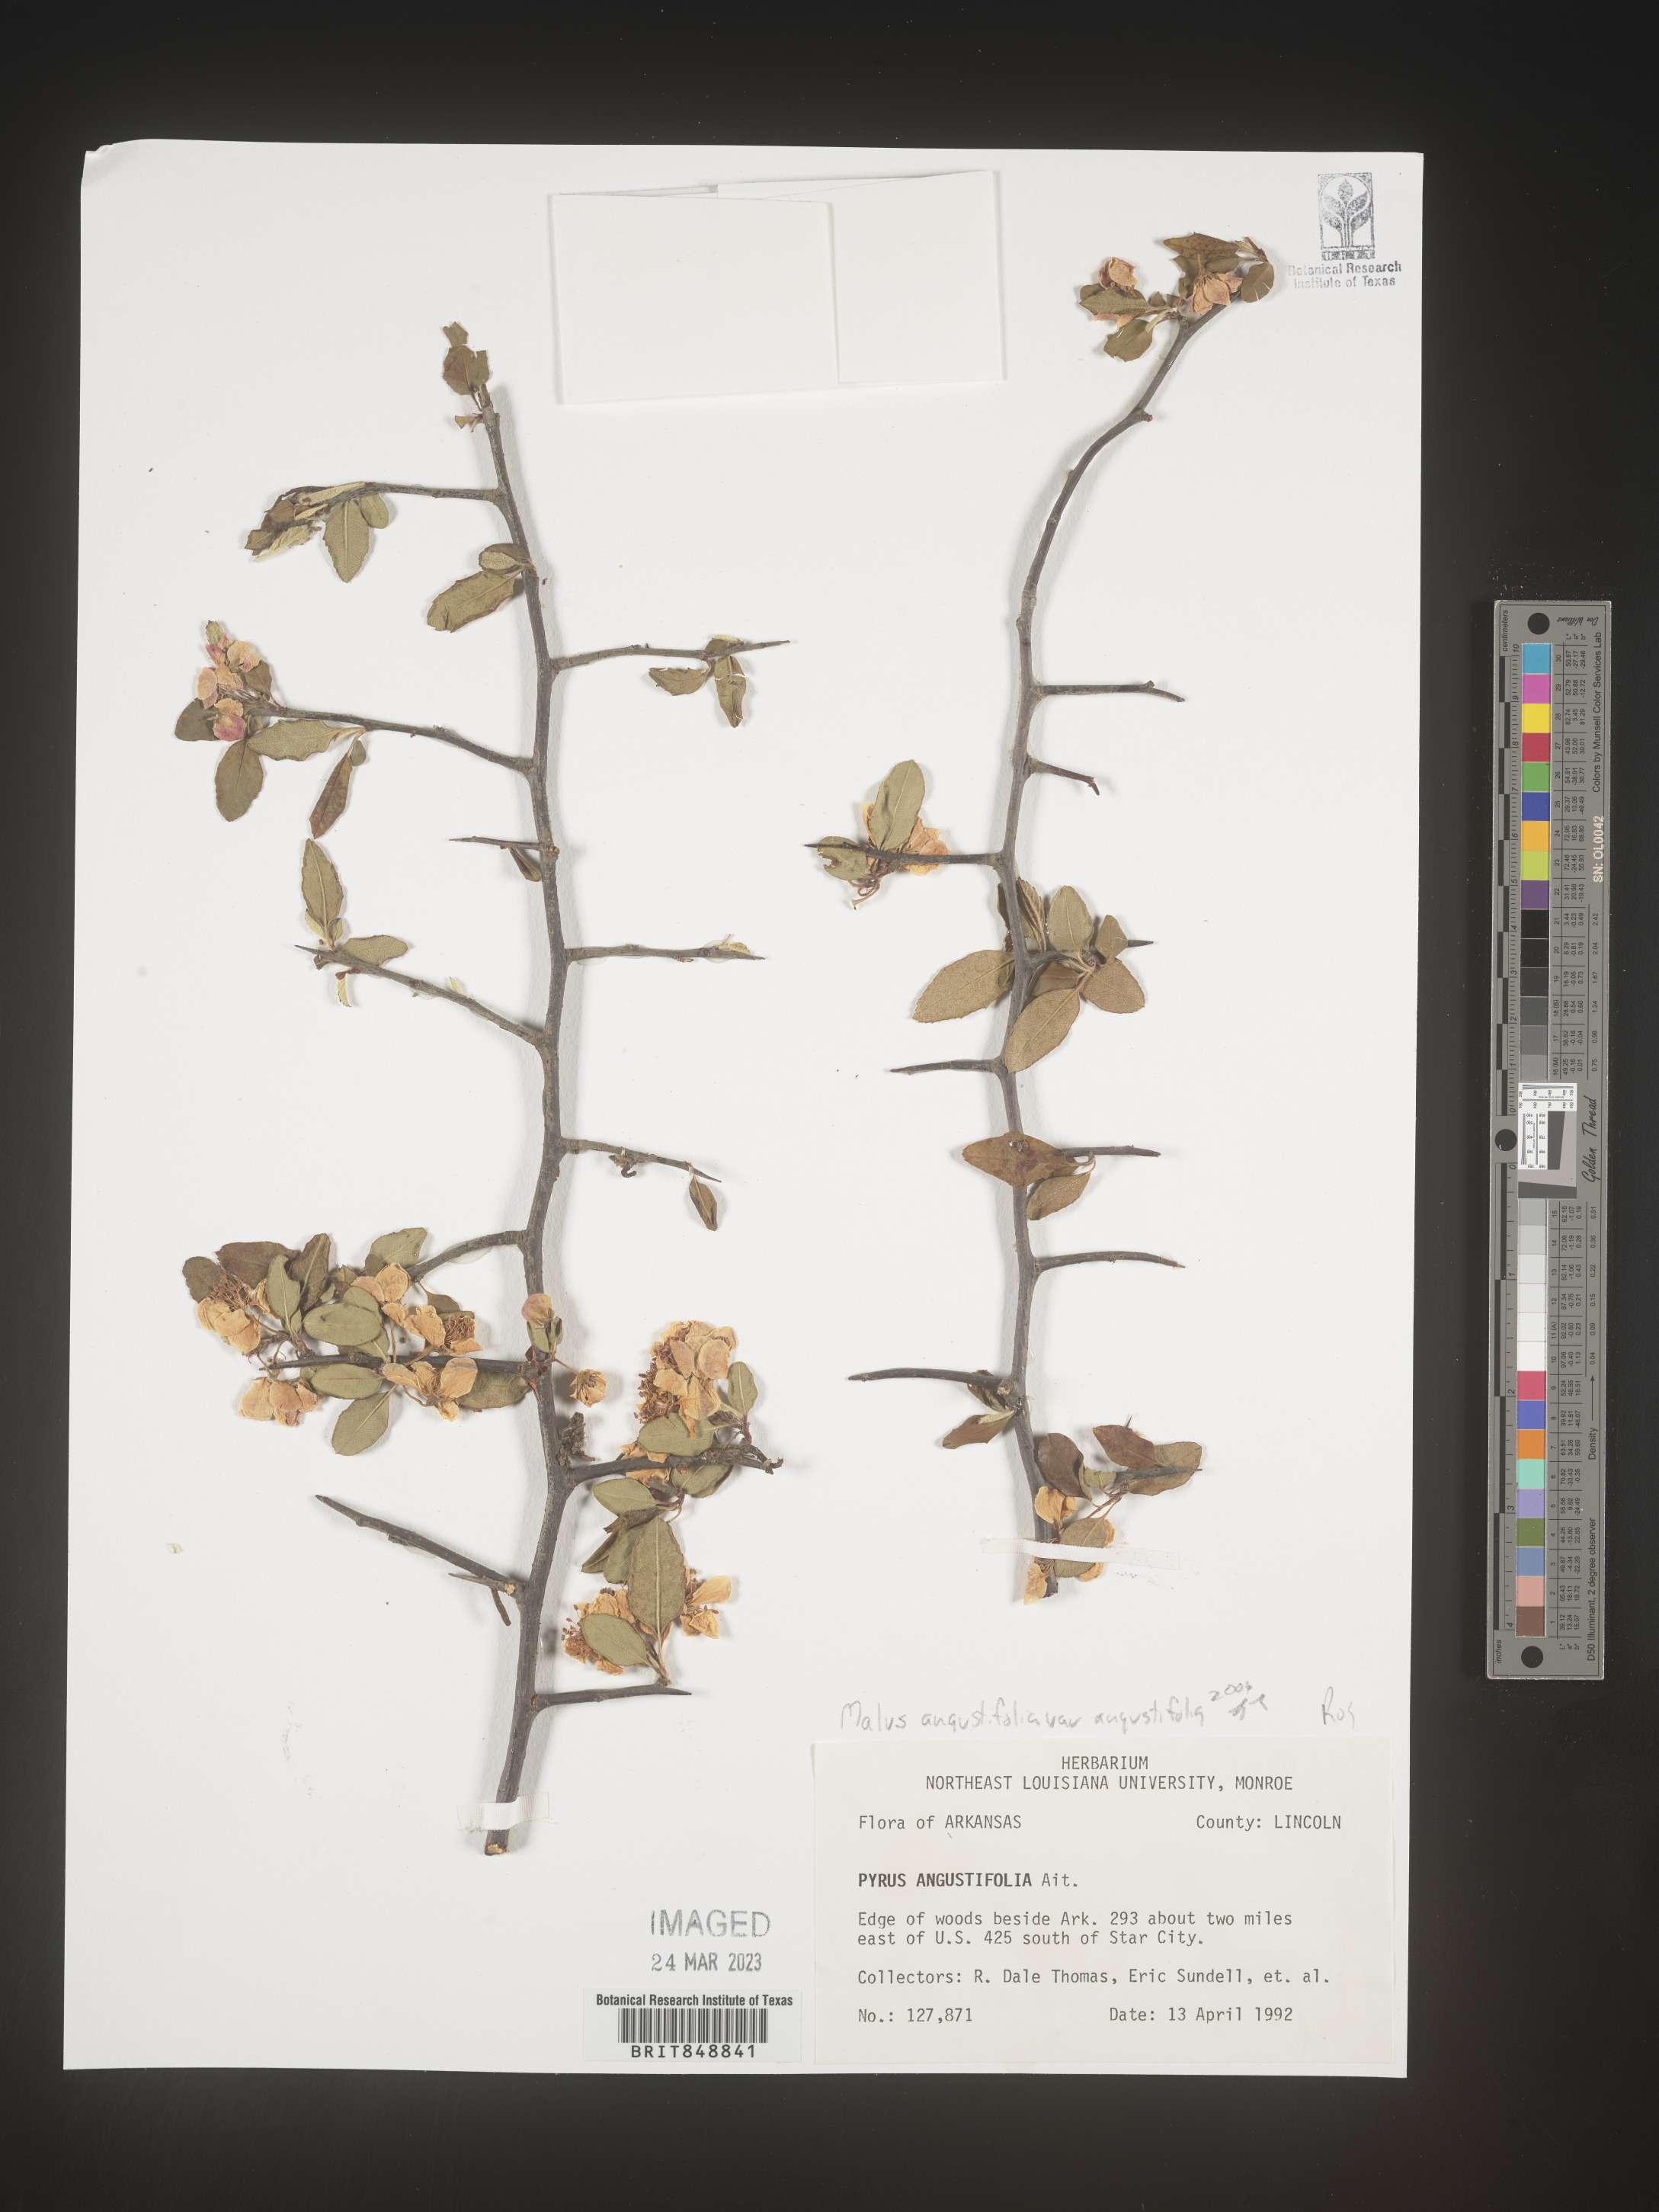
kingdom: Plantae
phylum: Tracheophyta
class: Magnoliopsida
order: Rosales
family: Rosaceae
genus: Malus
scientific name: Malus angustifolia
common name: Southern crab apple
